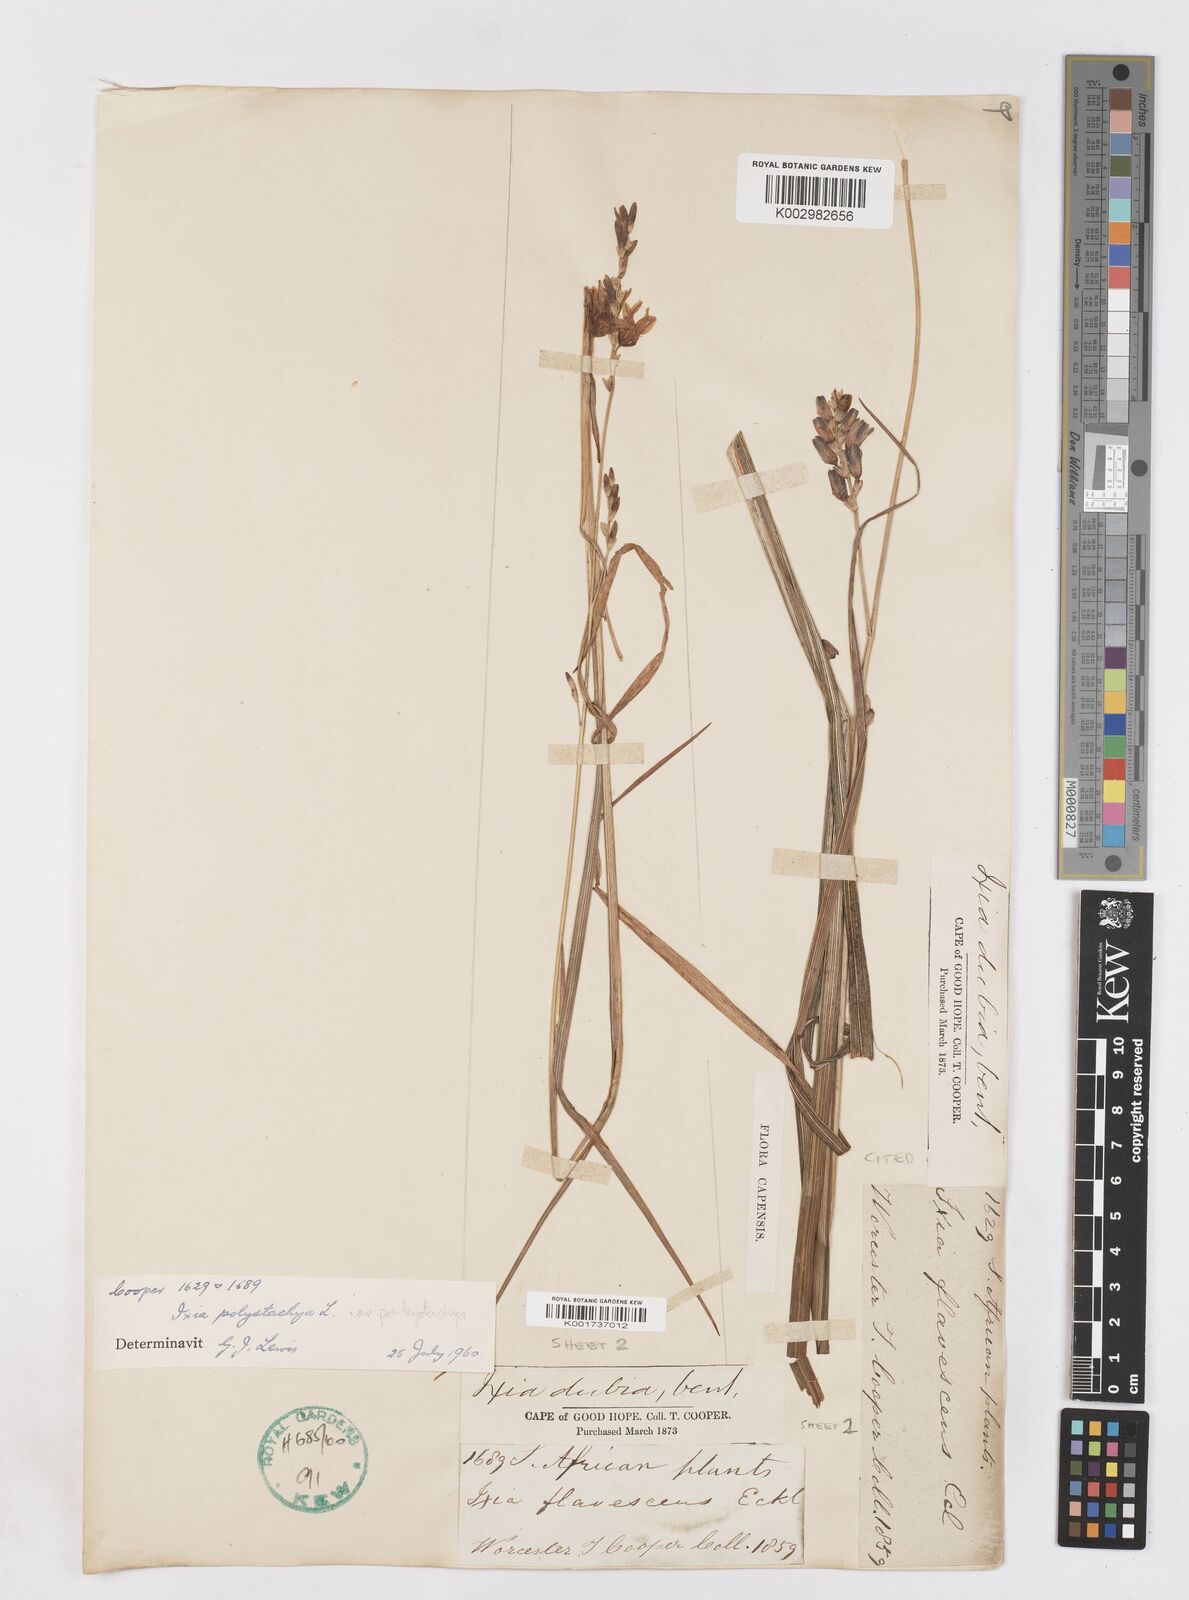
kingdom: Plantae
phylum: Tracheophyta
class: Liliopsida
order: Asparagales
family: Iridaceae
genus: Ixia
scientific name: Ixia polystachya
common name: White-and-yellow-flower cornlily
